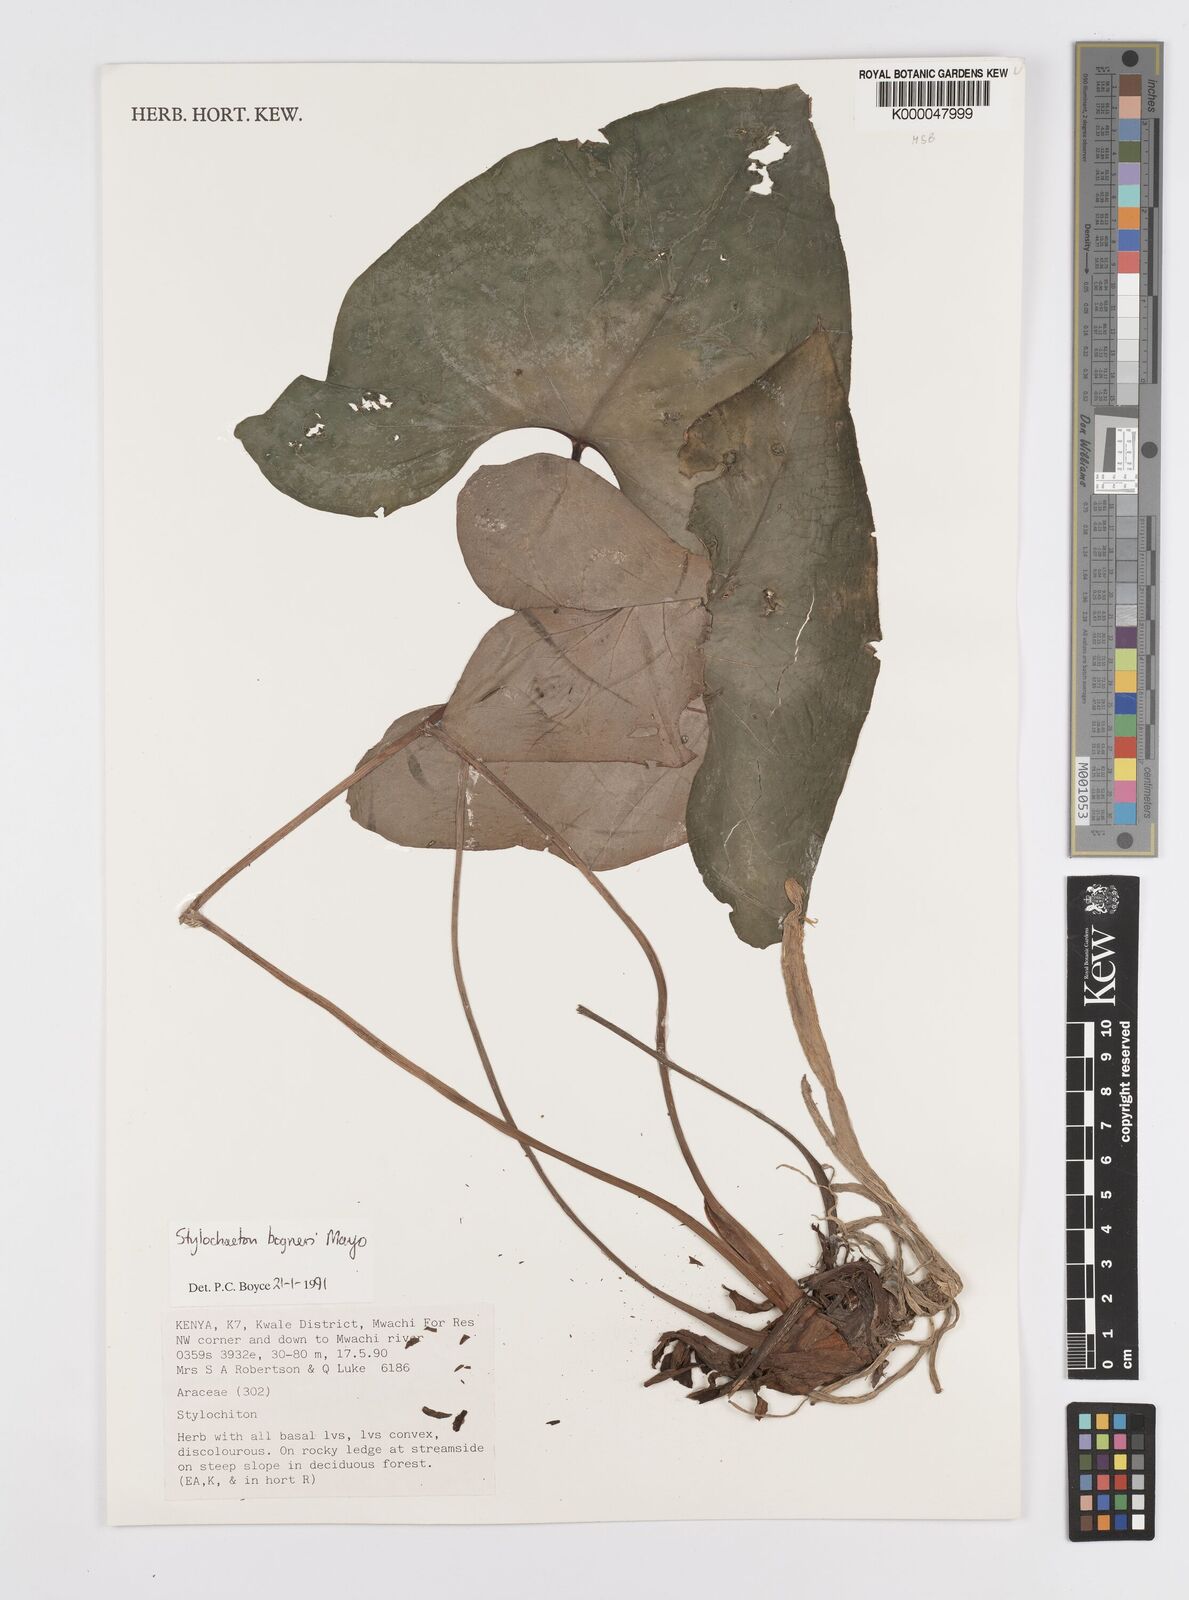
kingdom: Plantae
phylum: Tracheophyta
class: Liliopsida
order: Alismatales
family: Araceae
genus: Stylochaeton
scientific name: Stylochaeton bogneri
